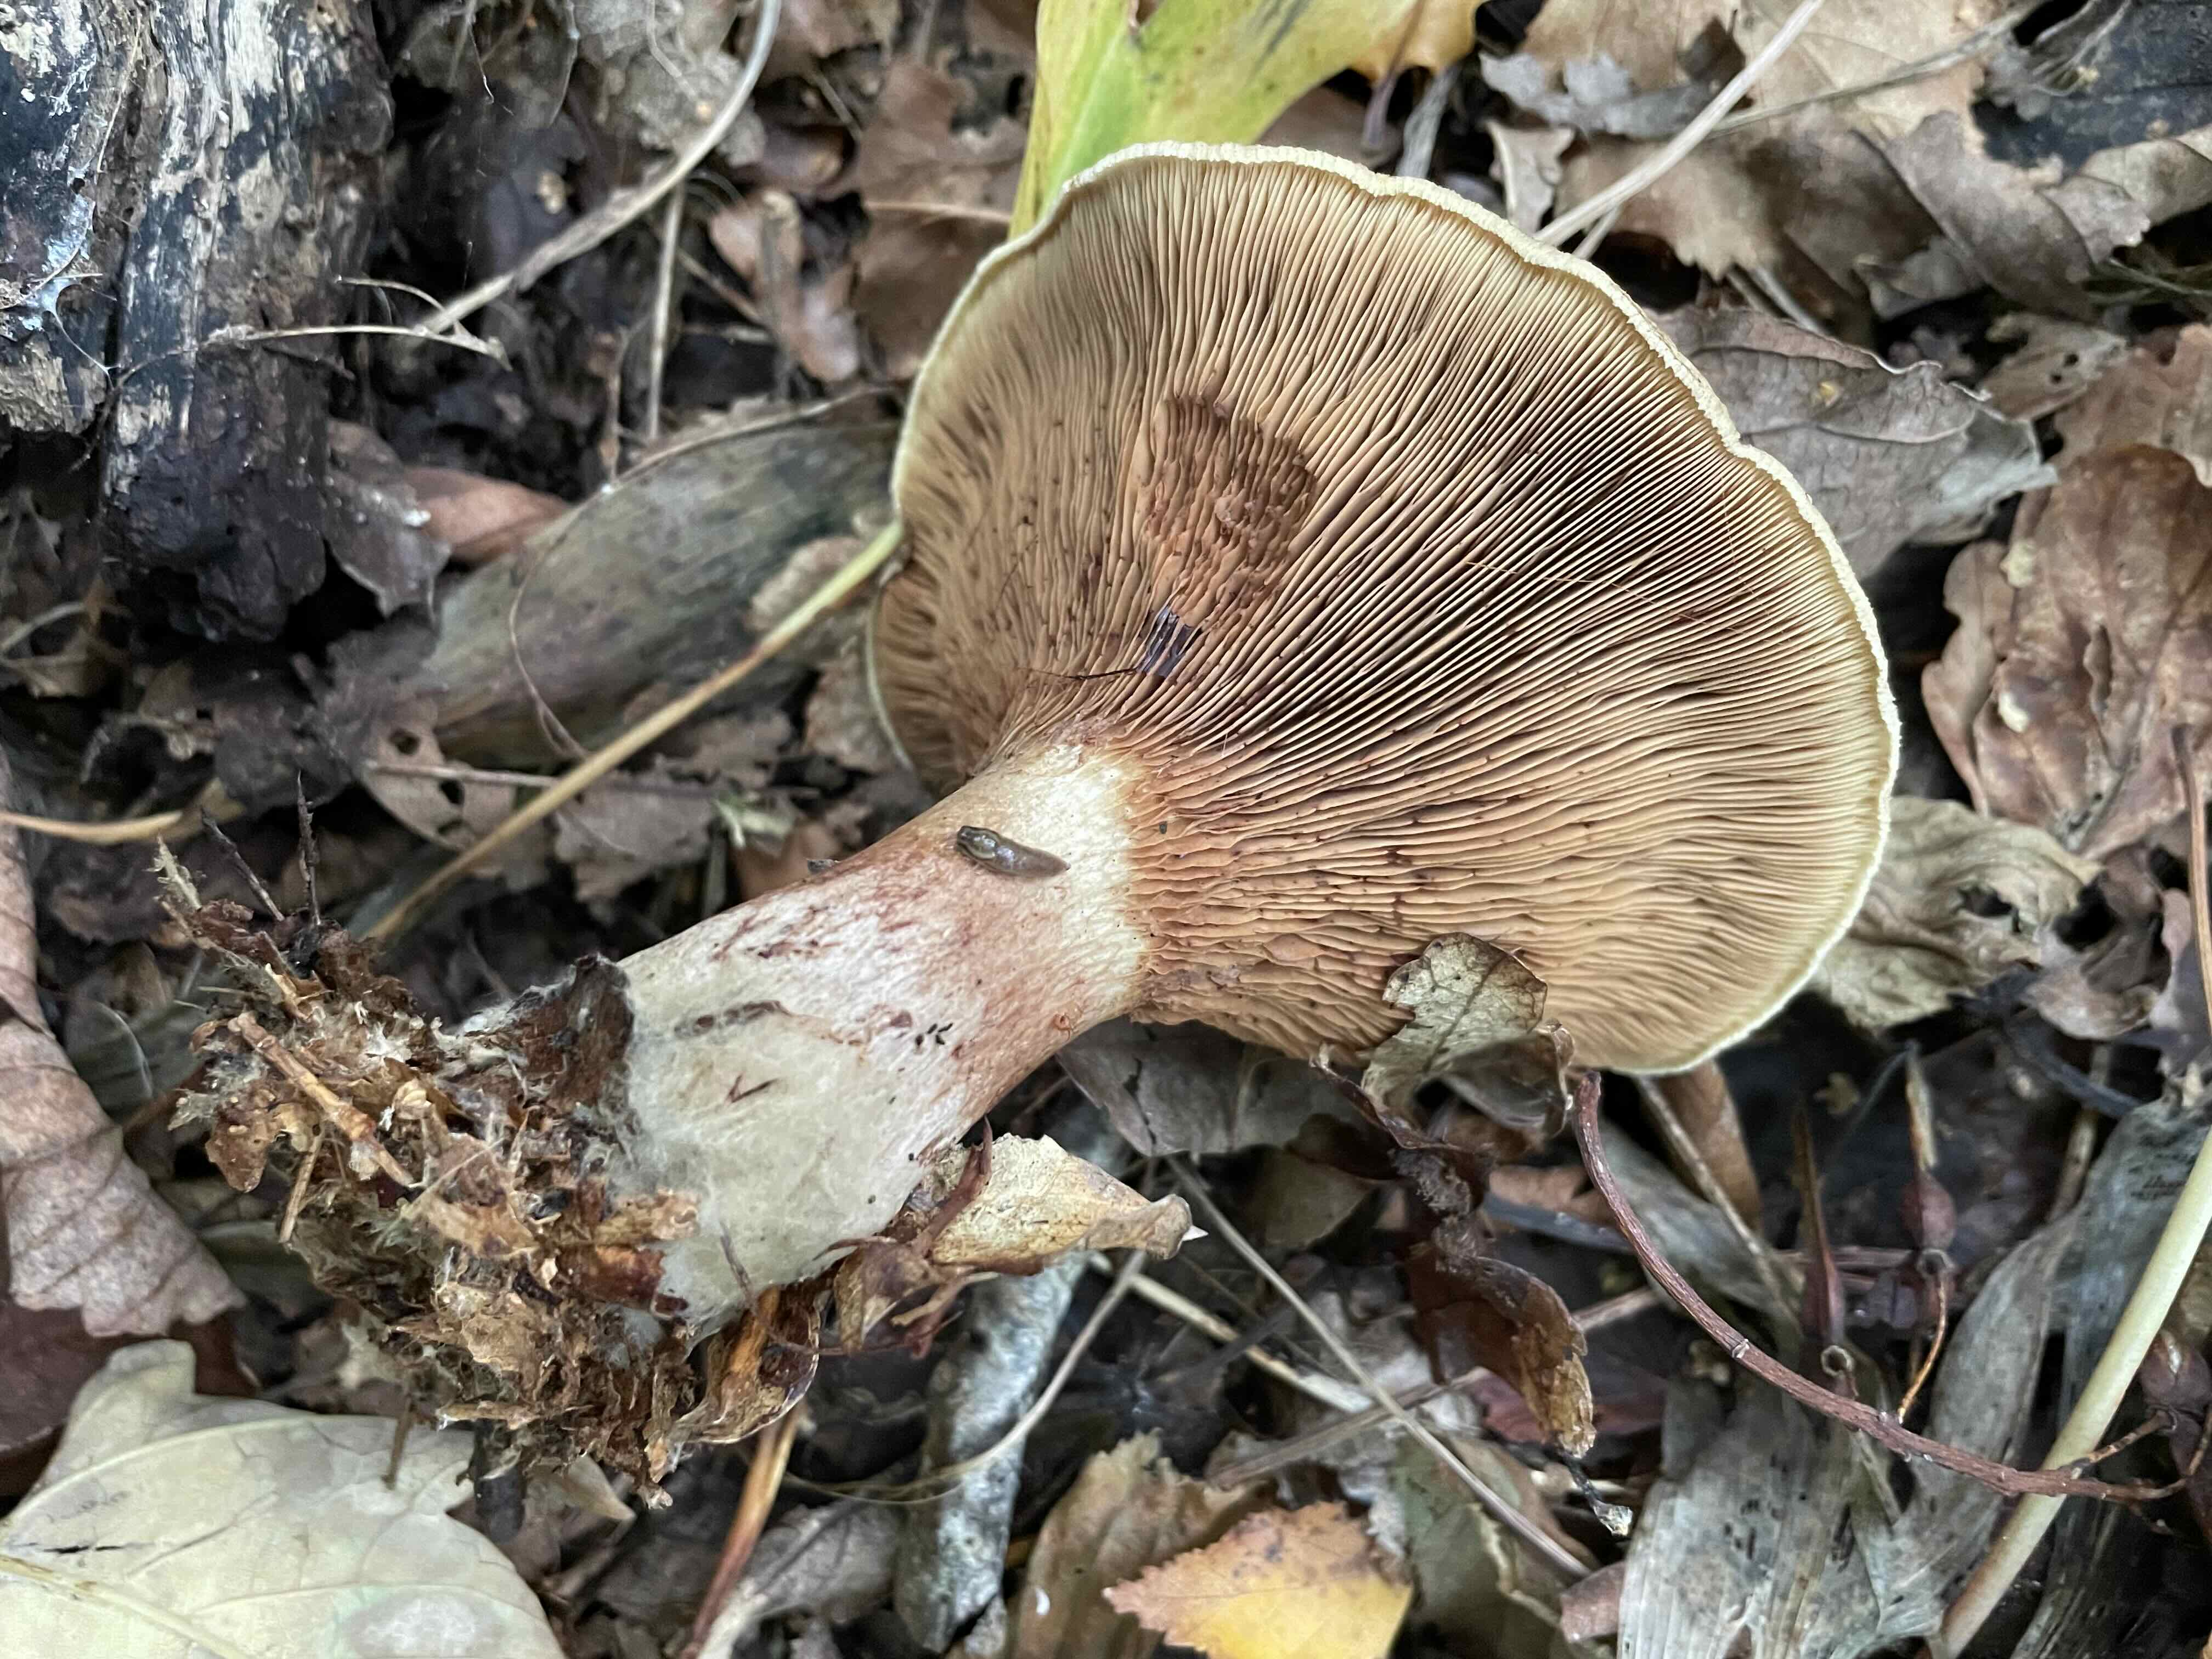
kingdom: Fungi
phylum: Basidiomycota
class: Agaricomycetes
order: Boletales
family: Paxillaceae
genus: Paxillus
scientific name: Paxillus involutus
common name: almindelig netbladhat
